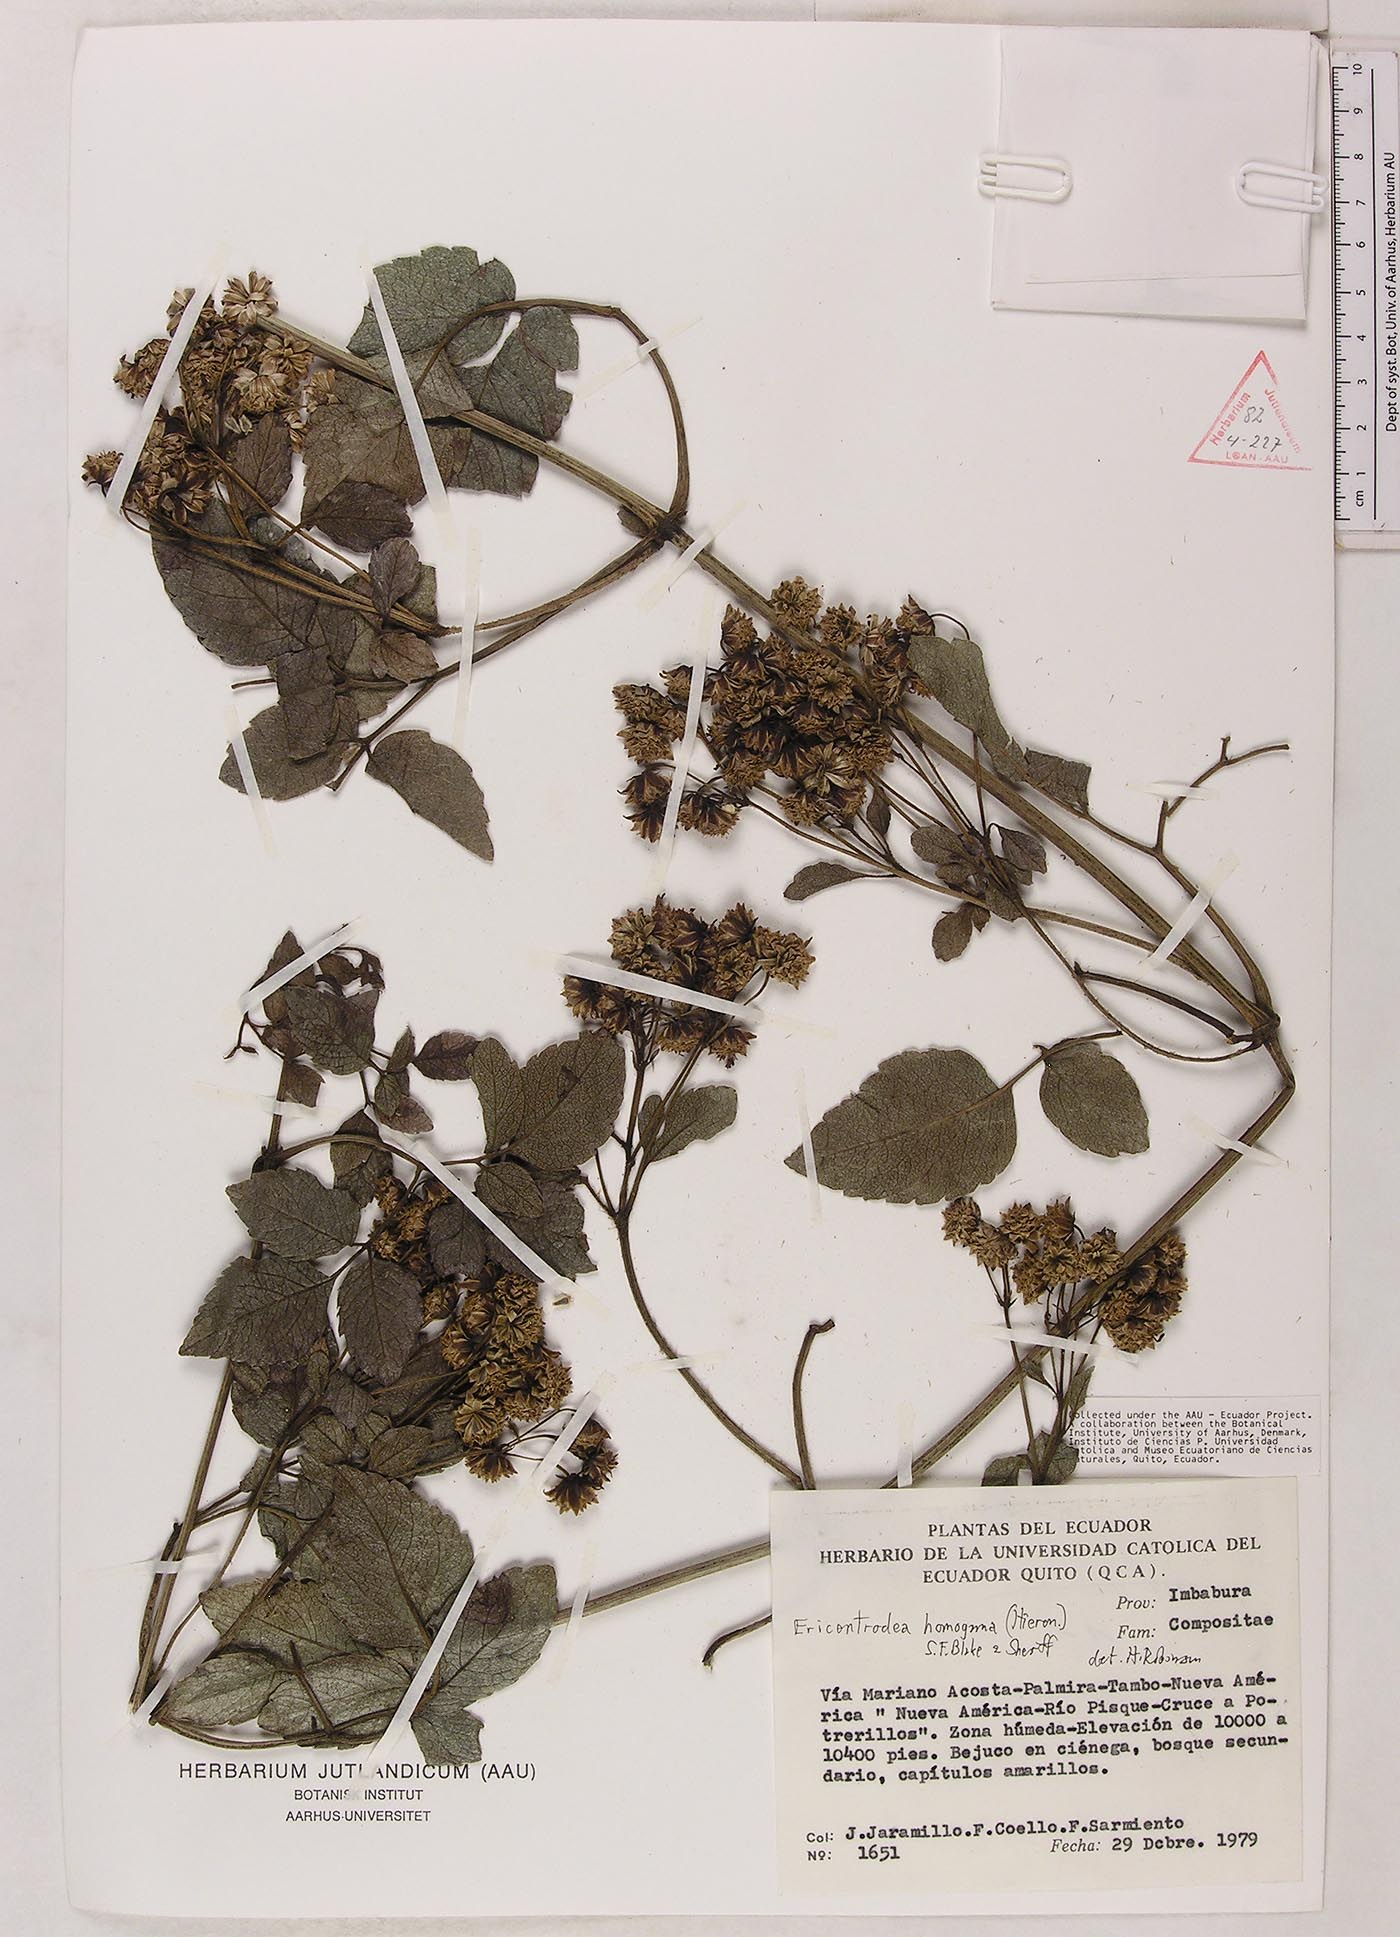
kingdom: Plantae
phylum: Tracheophyta
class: Magnoliopsida
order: Asterales
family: Asteraceae
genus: Ericentrodea
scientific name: Ericentrodea homogama
